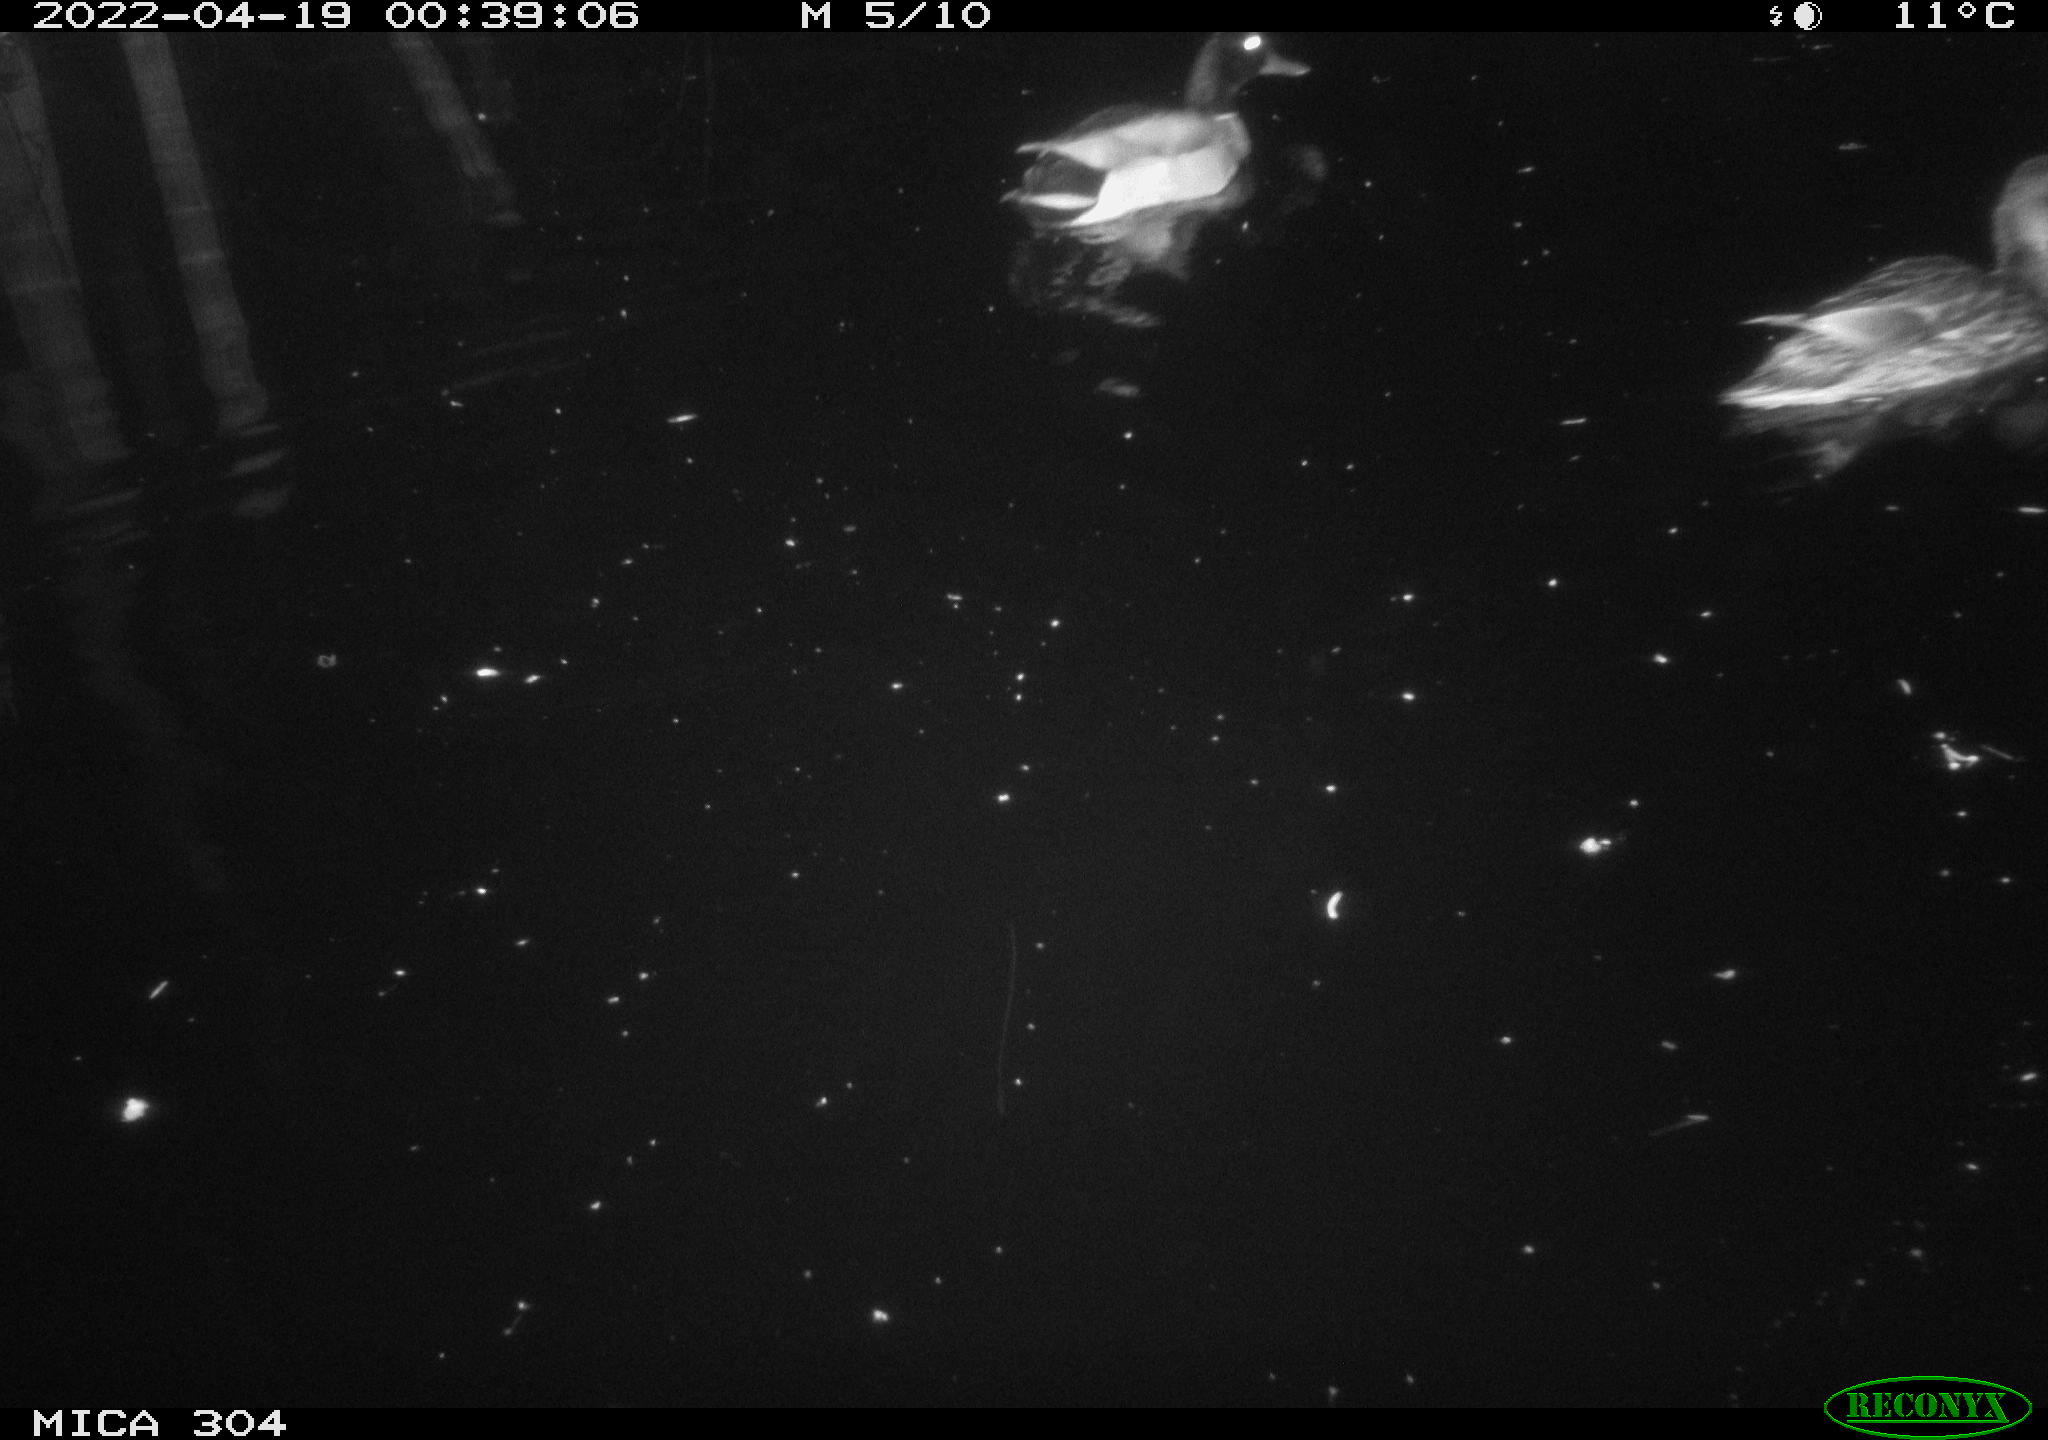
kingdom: Animalia
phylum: Chordata
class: Aves
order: Anseriformes
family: Anatidae
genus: Mareca
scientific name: Mareca strepera
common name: Gadwall
